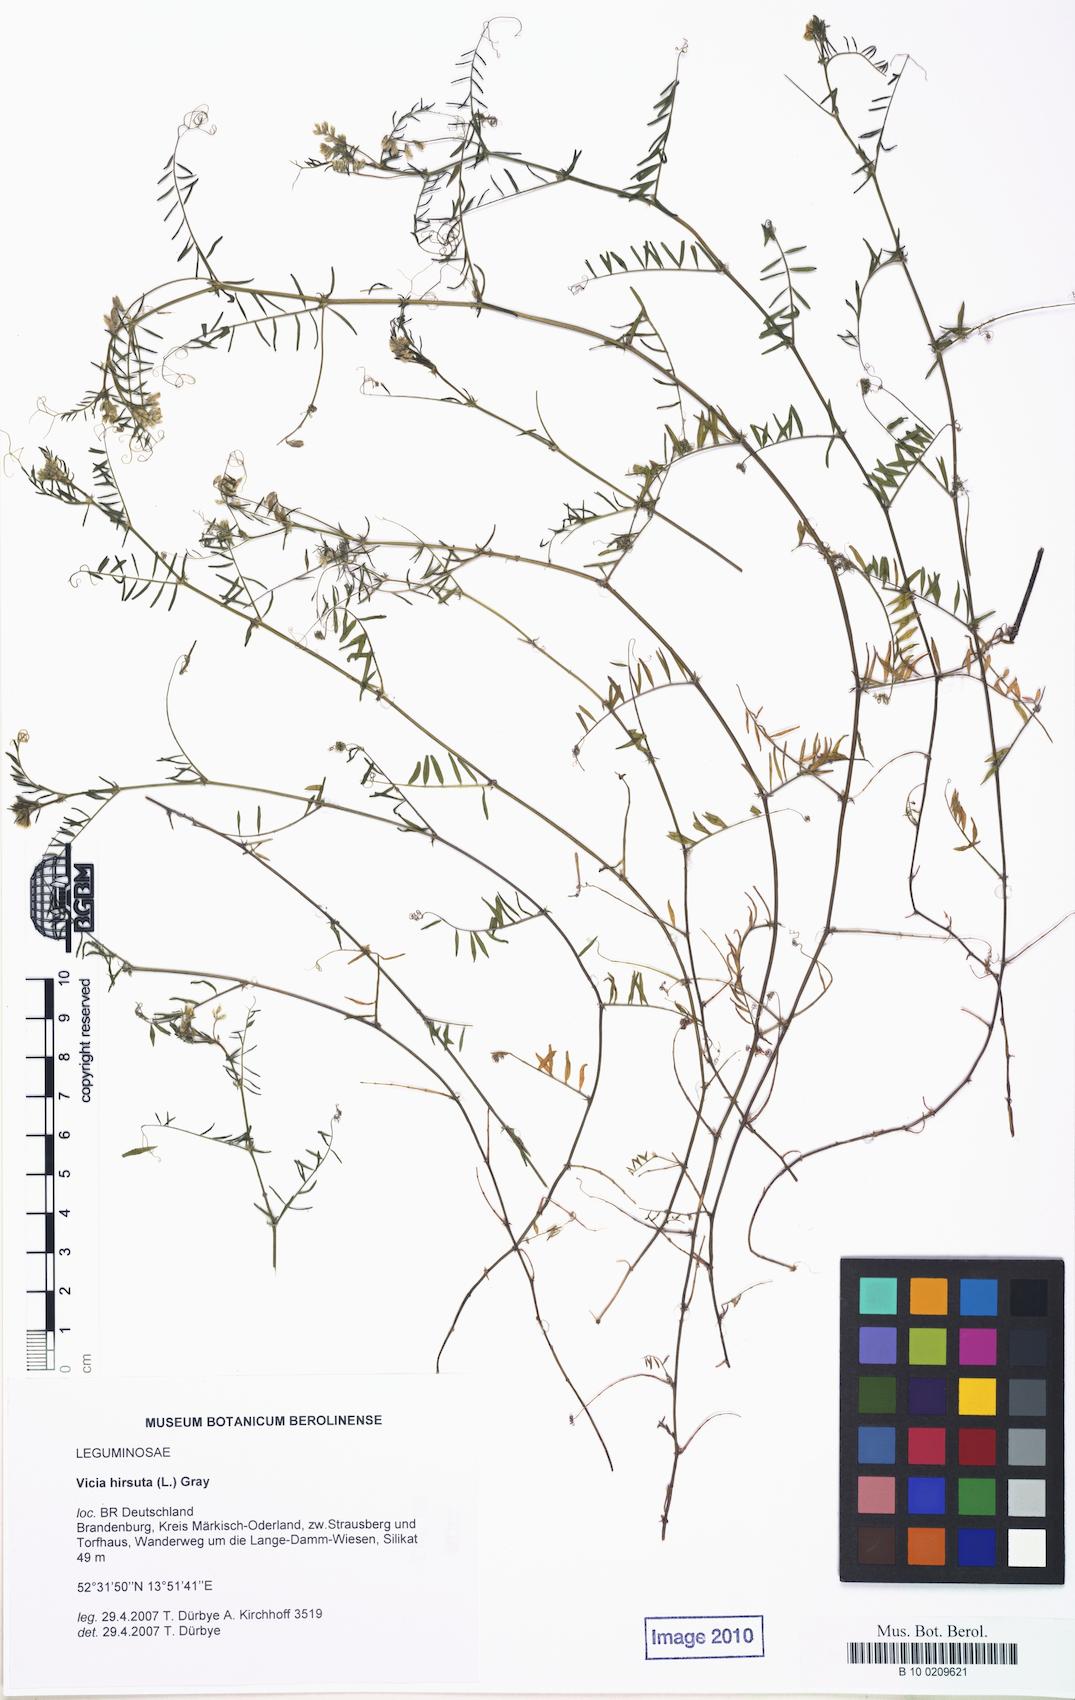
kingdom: Plantae
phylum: Tracheophyta
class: Magnoliopsida
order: Fabales
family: Fabaceae
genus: Vicia
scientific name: Vicia hirsuta
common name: Tiny vetch
